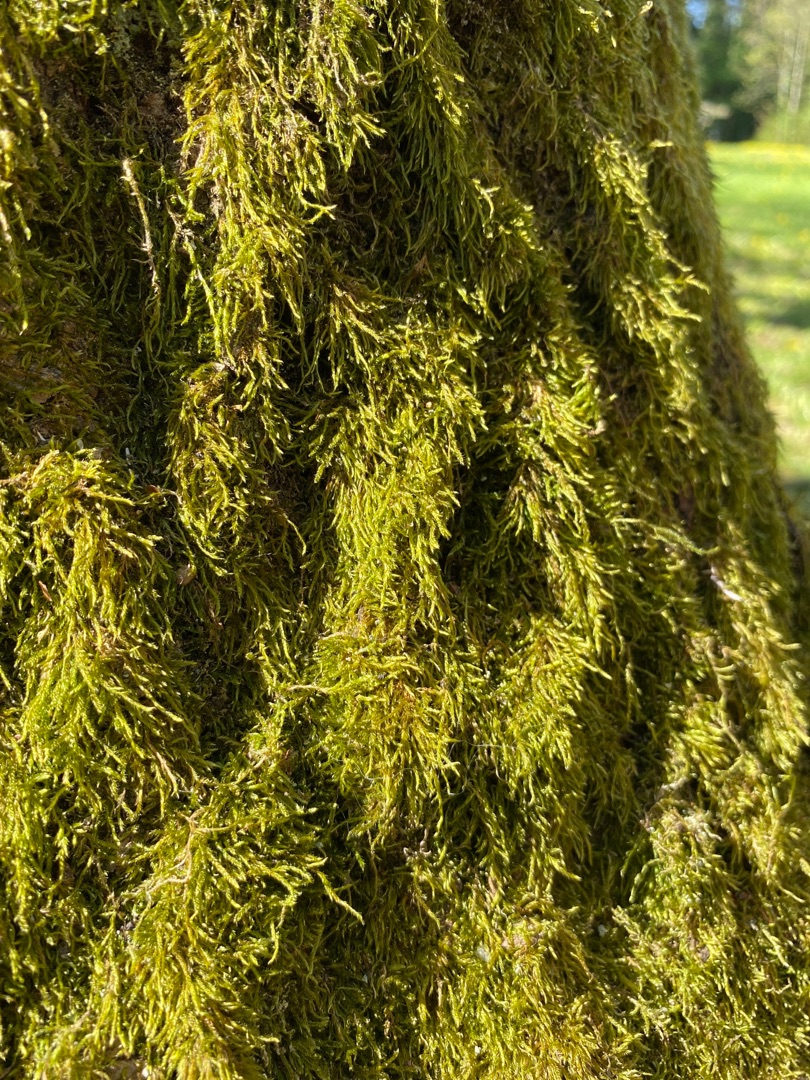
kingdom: Plantae
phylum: Bryophyta
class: Bryopsida
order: Hypnales
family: Hypnaceae
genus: Hypnum
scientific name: Hypnum
